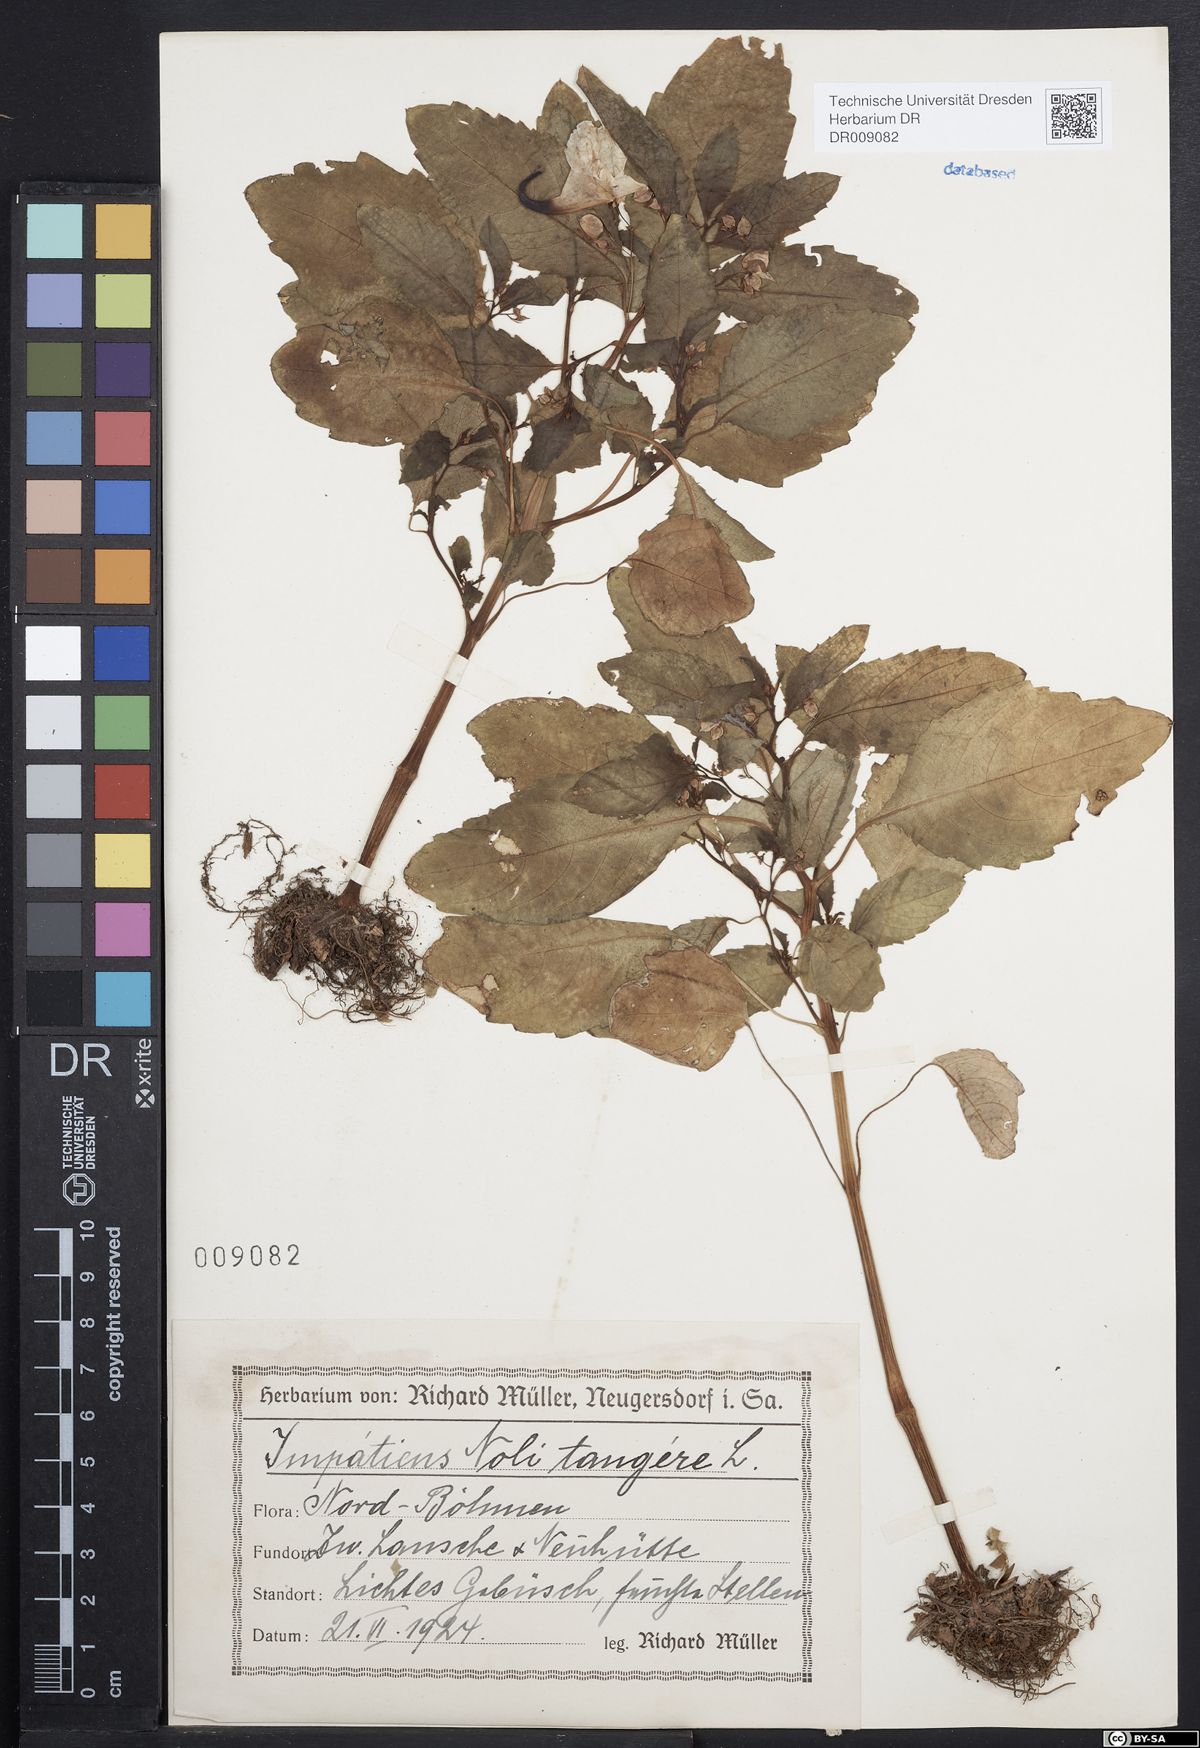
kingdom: Plantae
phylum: Tracheophyta
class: Magnoliopsida
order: Ericales
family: Balsaminaceae
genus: Impatiens
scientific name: Impatiens noli-tangere
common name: Touch-me-not balsam
